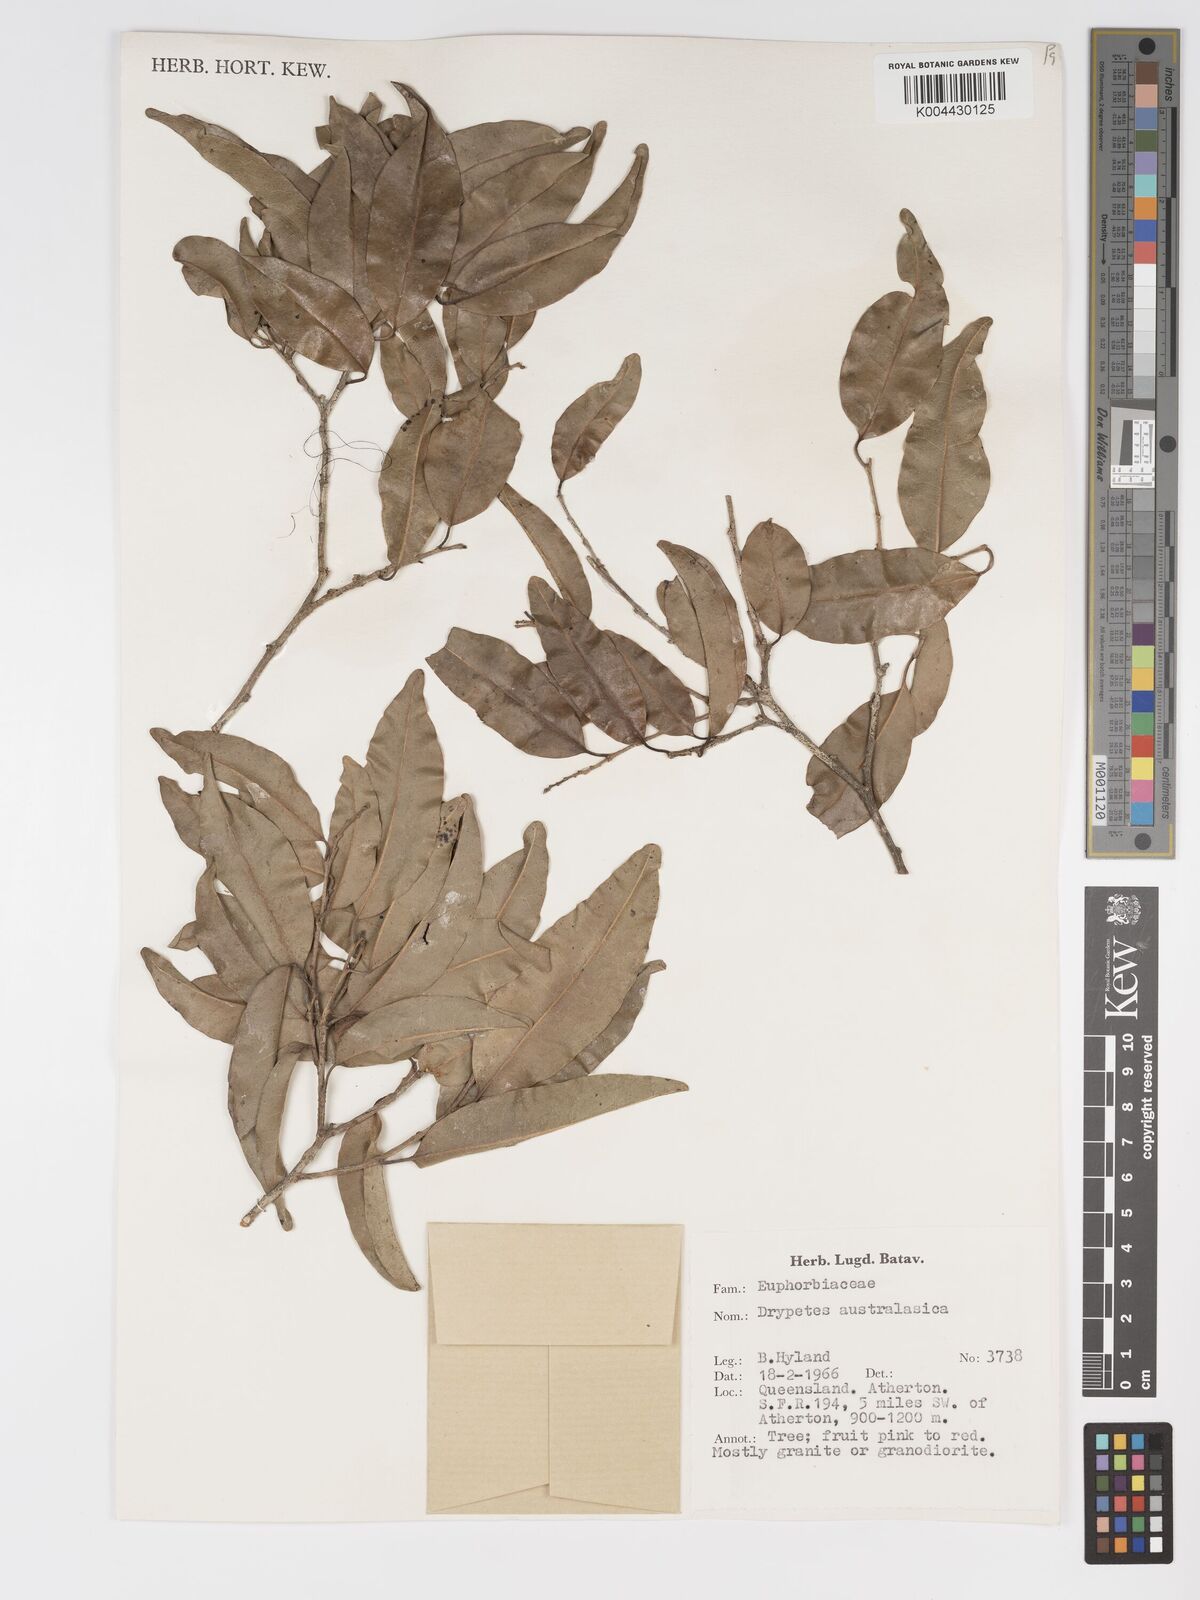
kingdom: Plantae
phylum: Tracheophyta
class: Magnoliopsida
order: Malpighiales
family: Putranjivaceae
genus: Drypetes
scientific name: Drypetes deplanchei
